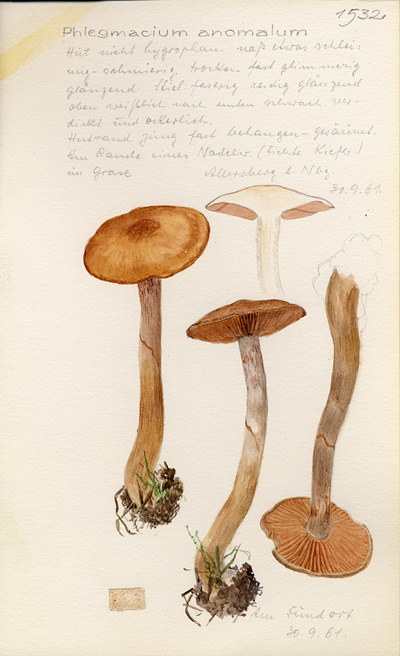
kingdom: Fungi
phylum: Basidiomycota
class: Agaricomycetes
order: Agaricales
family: Cortinariaceae
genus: Cortinarius
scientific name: Cortinarius anomalus
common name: Variable webcap
